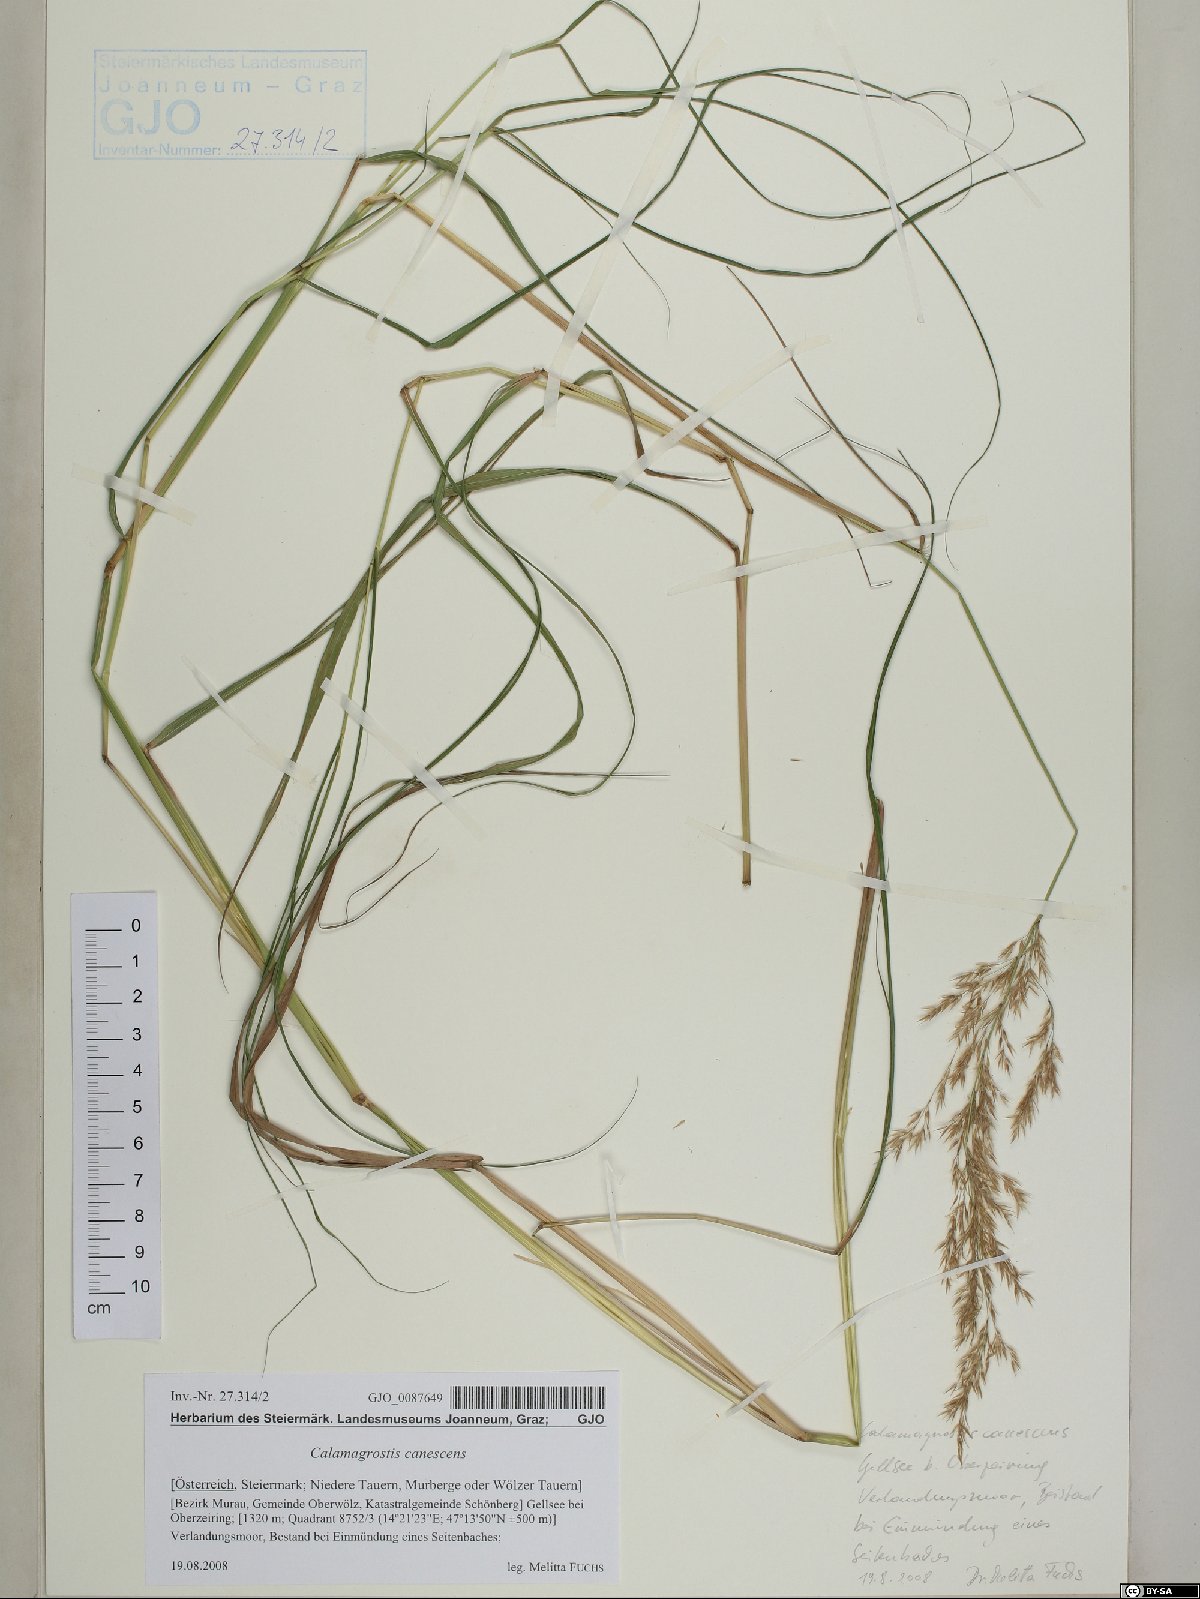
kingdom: Plantae
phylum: Tracheophyta
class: Liliopsida
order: Poales
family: Poaceae
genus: Calamagrostis
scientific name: Calamagrostis canescens
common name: Purple small-reed
